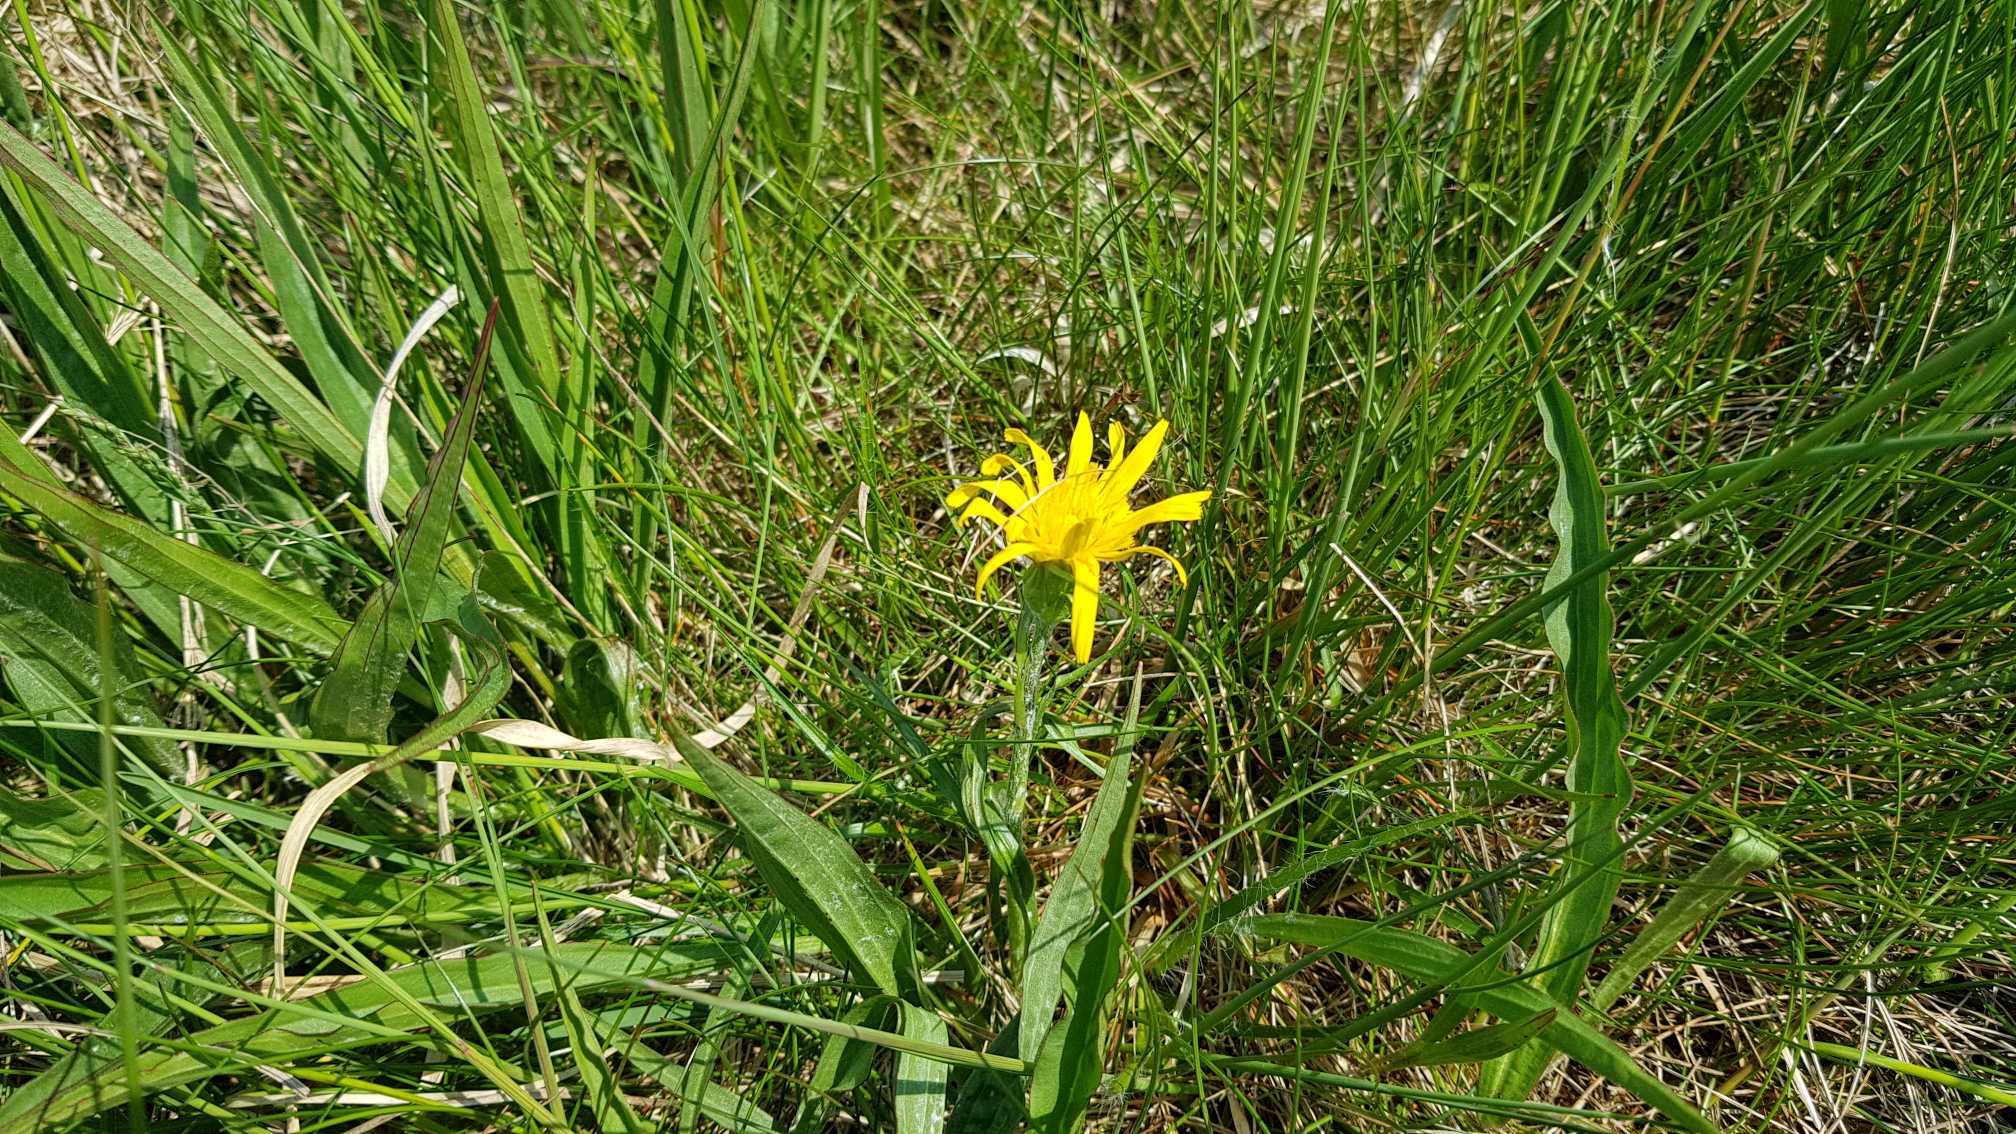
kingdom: Plantae
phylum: Tracheophyta
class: Magnoliopsida
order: Asterales
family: Asteraceae
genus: Scorzonera
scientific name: Scorzonera humilis
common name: Lav skorsoner
